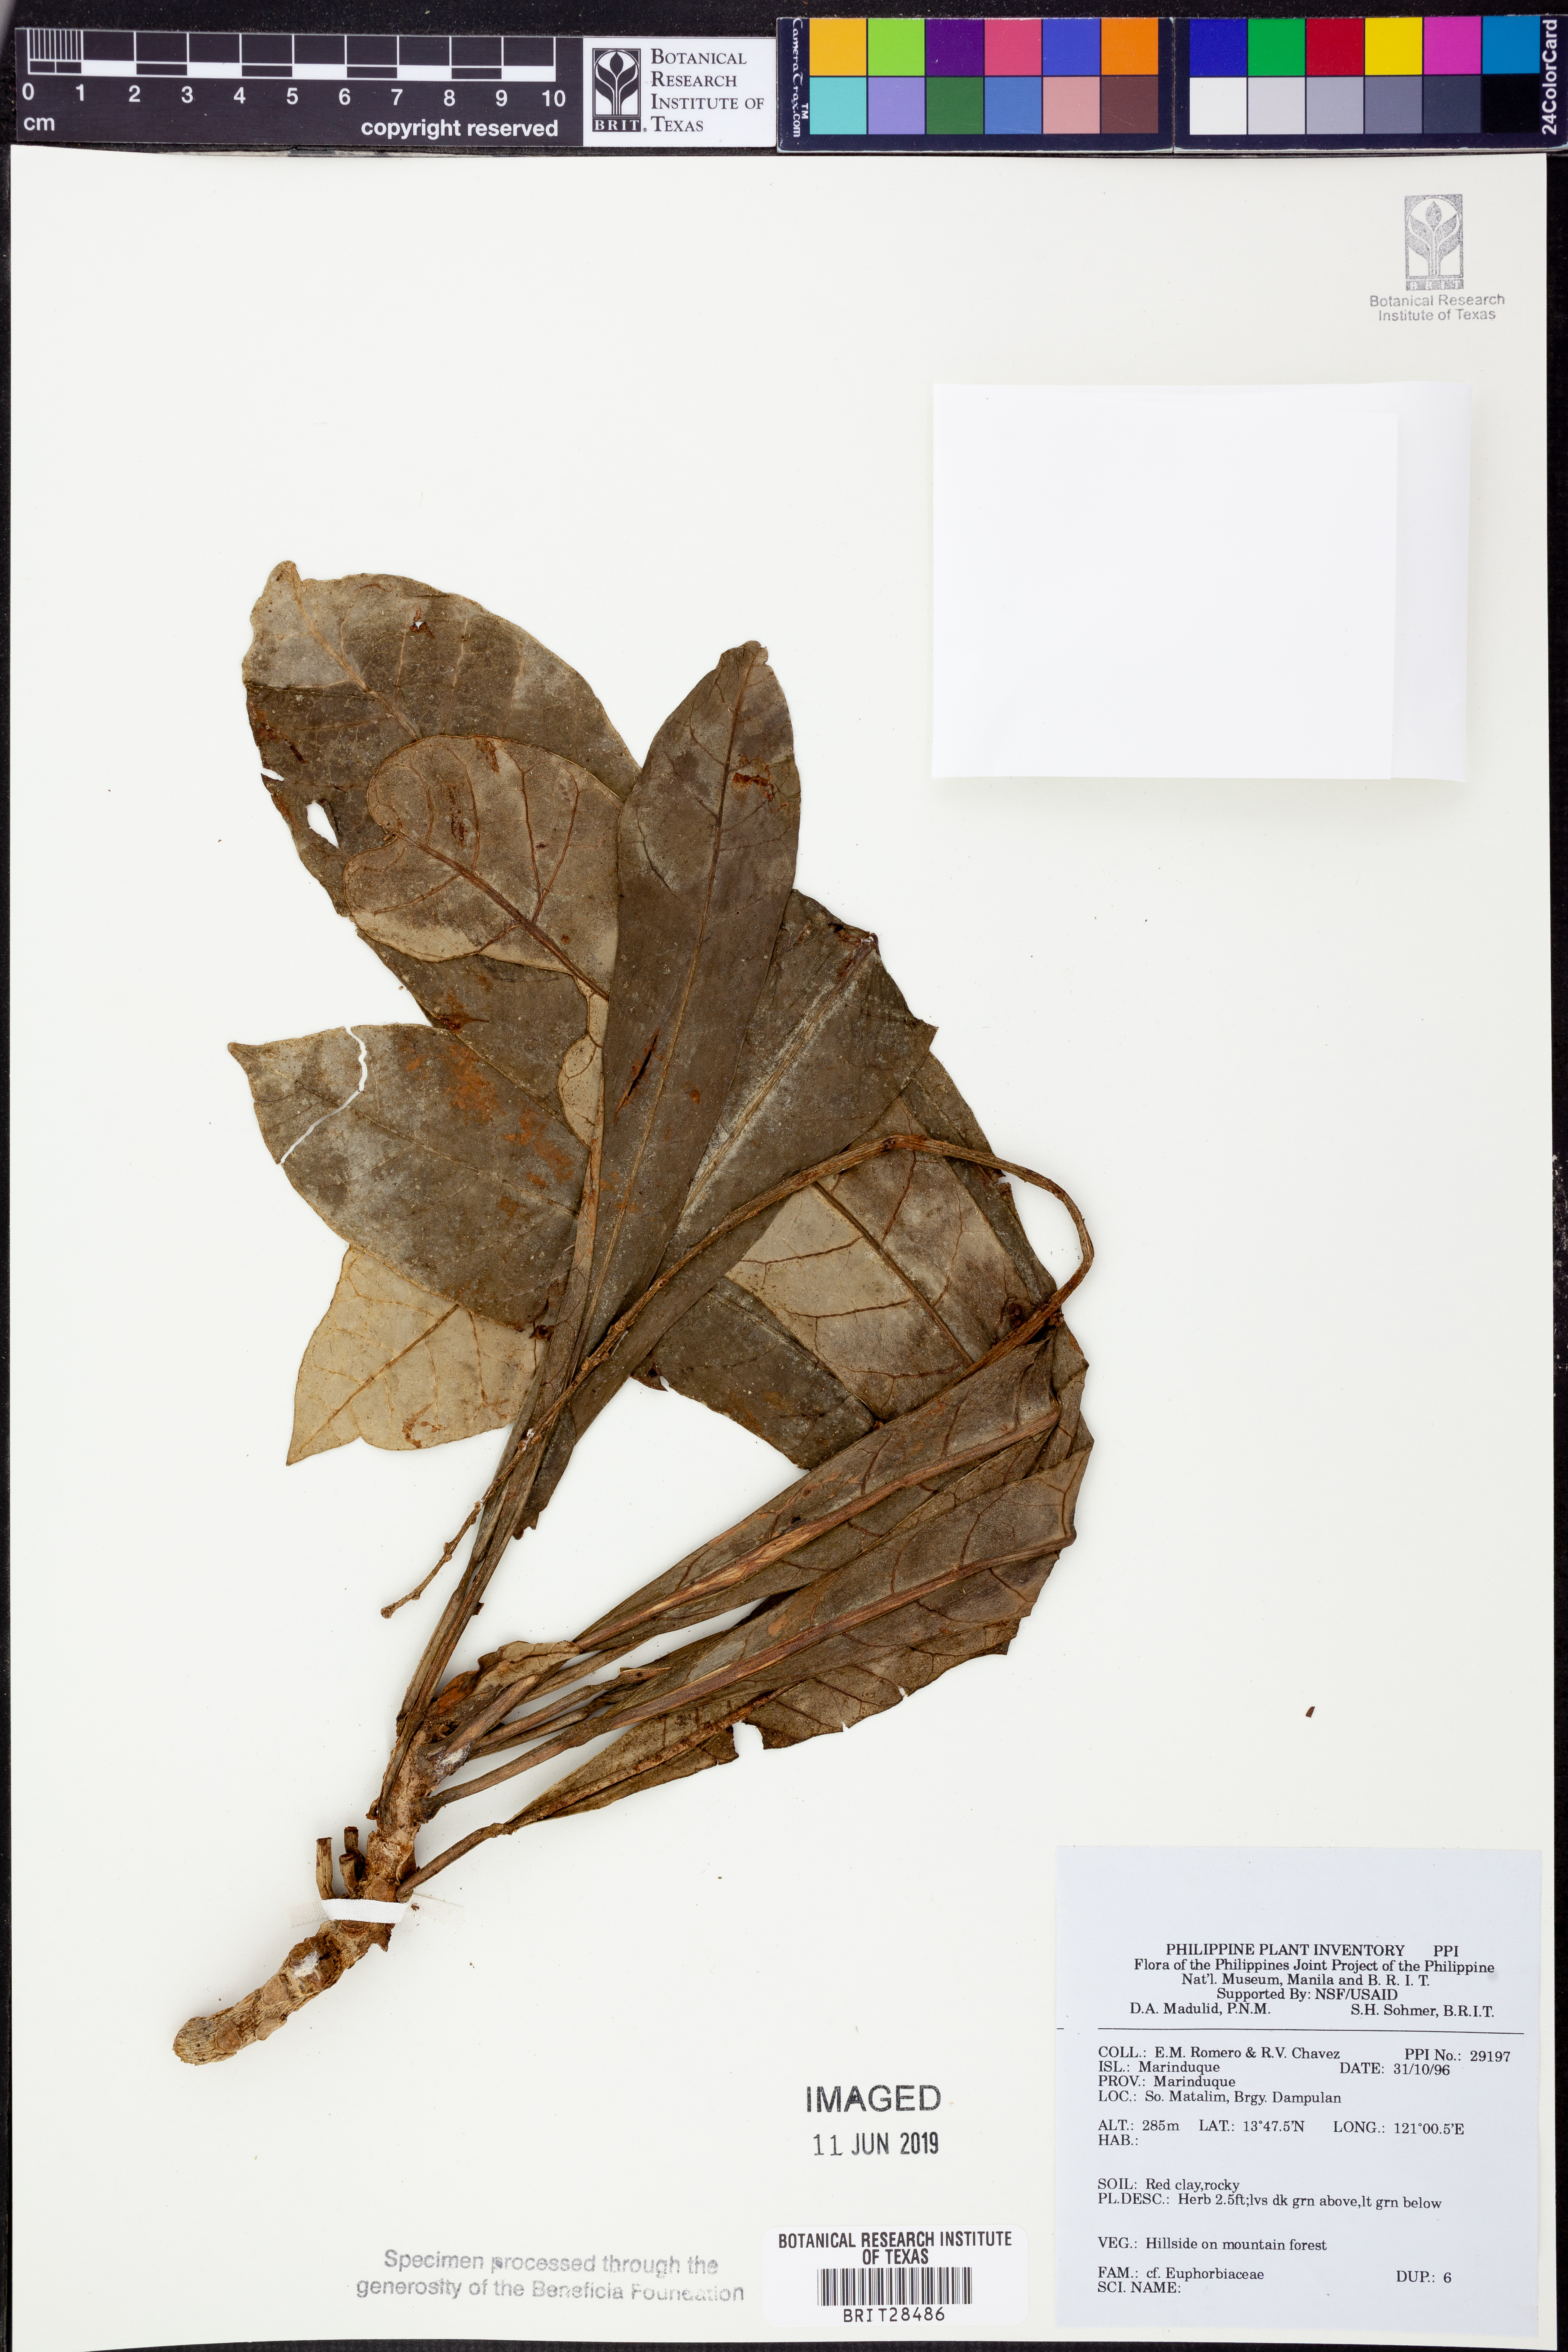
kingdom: Plantae
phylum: Tracheophyta
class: Magnoliopsida
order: Malpighiales
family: Euphorbiaceae
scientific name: Euphorbiaceae
